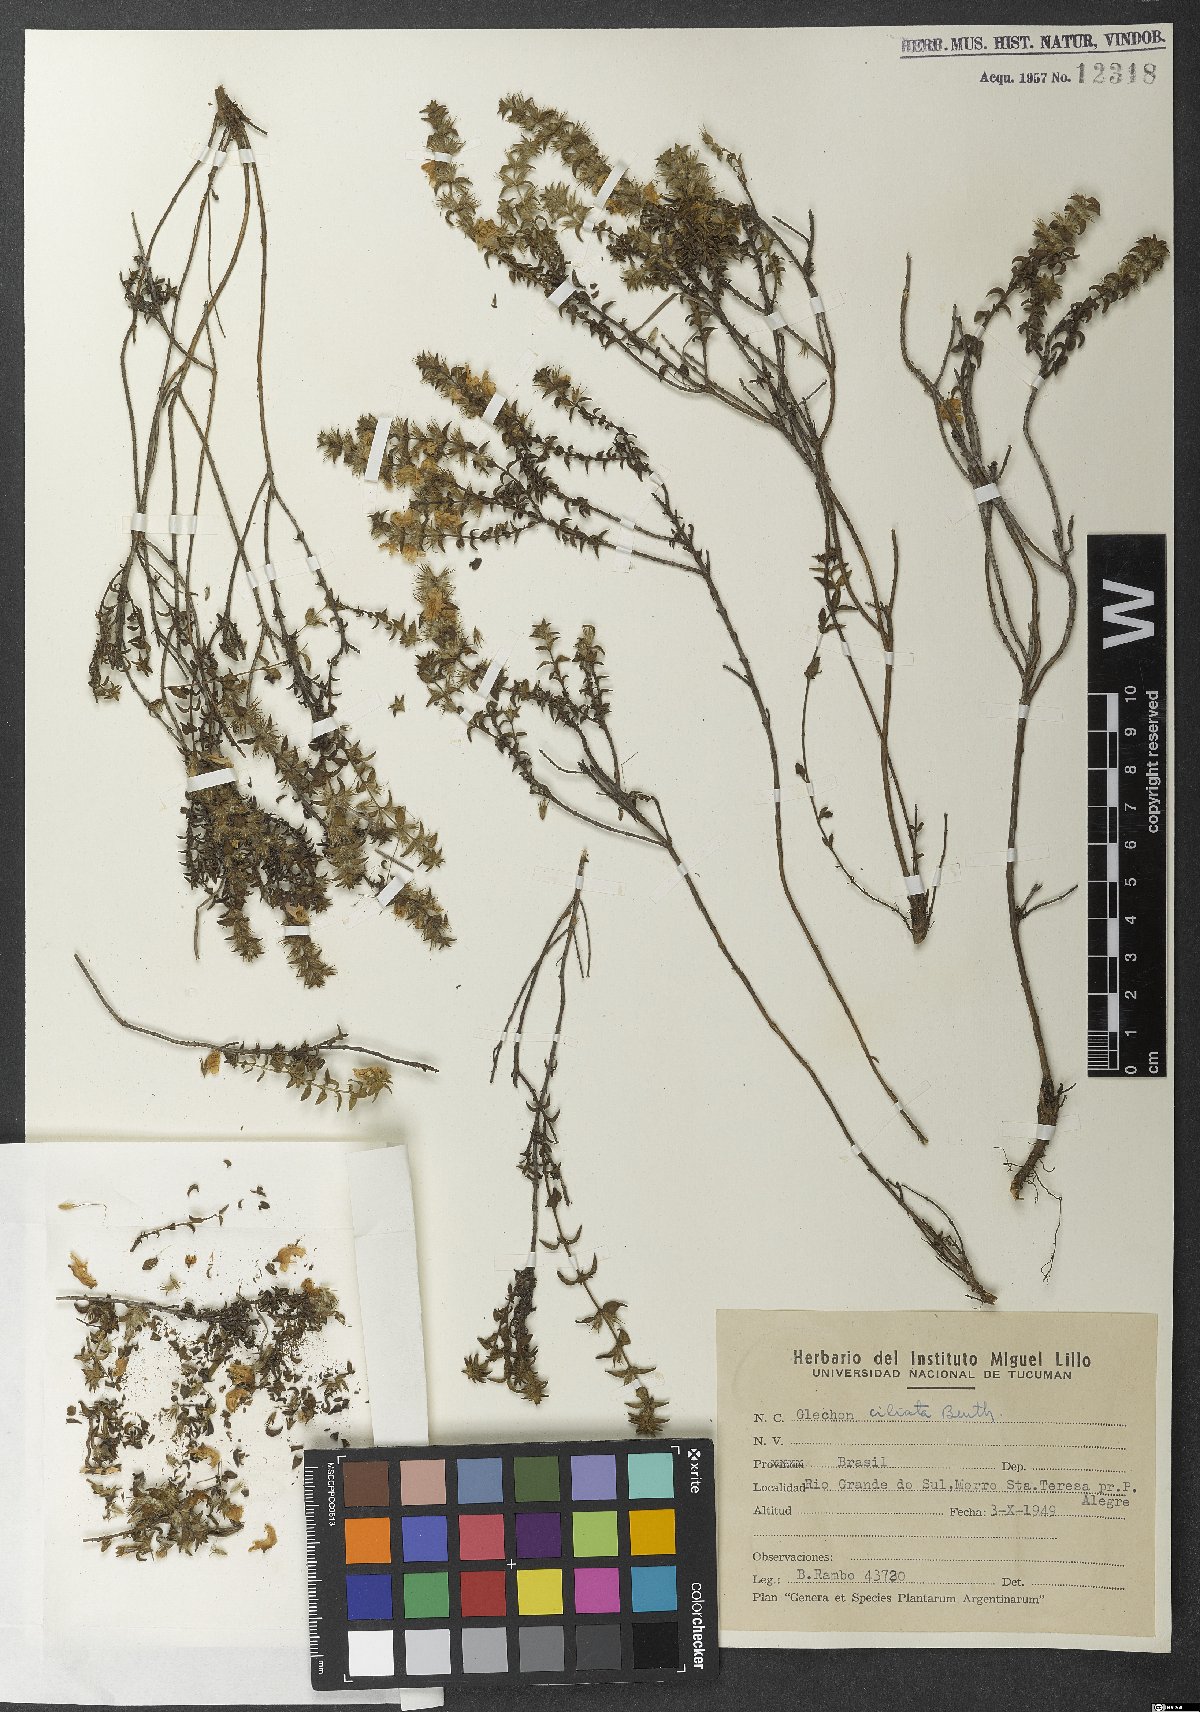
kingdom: Plantae
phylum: Tracheophyta
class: Magnoliopsida
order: Lamiales
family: Lamiaceae
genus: Glechon
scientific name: Glechon ciliata
